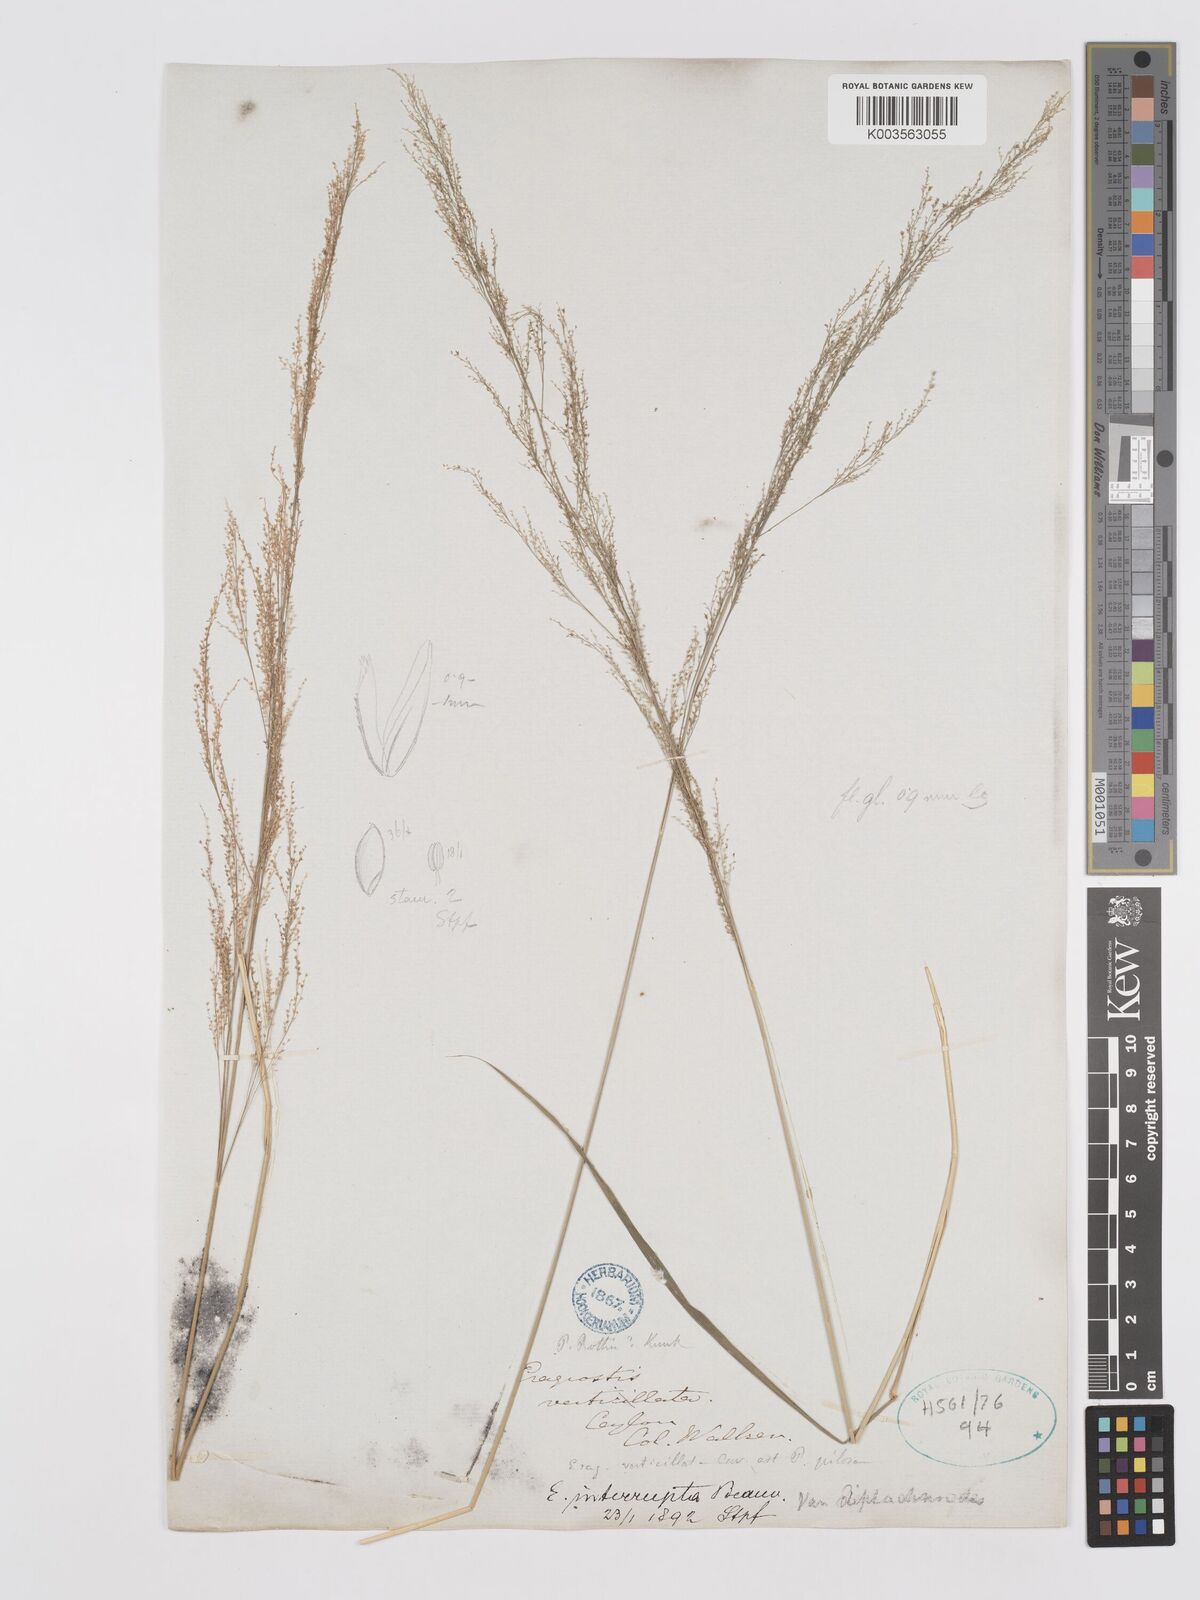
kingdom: Plantae
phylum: Tracheophyta
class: Liliopsida
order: Poales
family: Poaceae
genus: Eragrostis
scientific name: Eragrostis japonica
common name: Pond lovegrass
